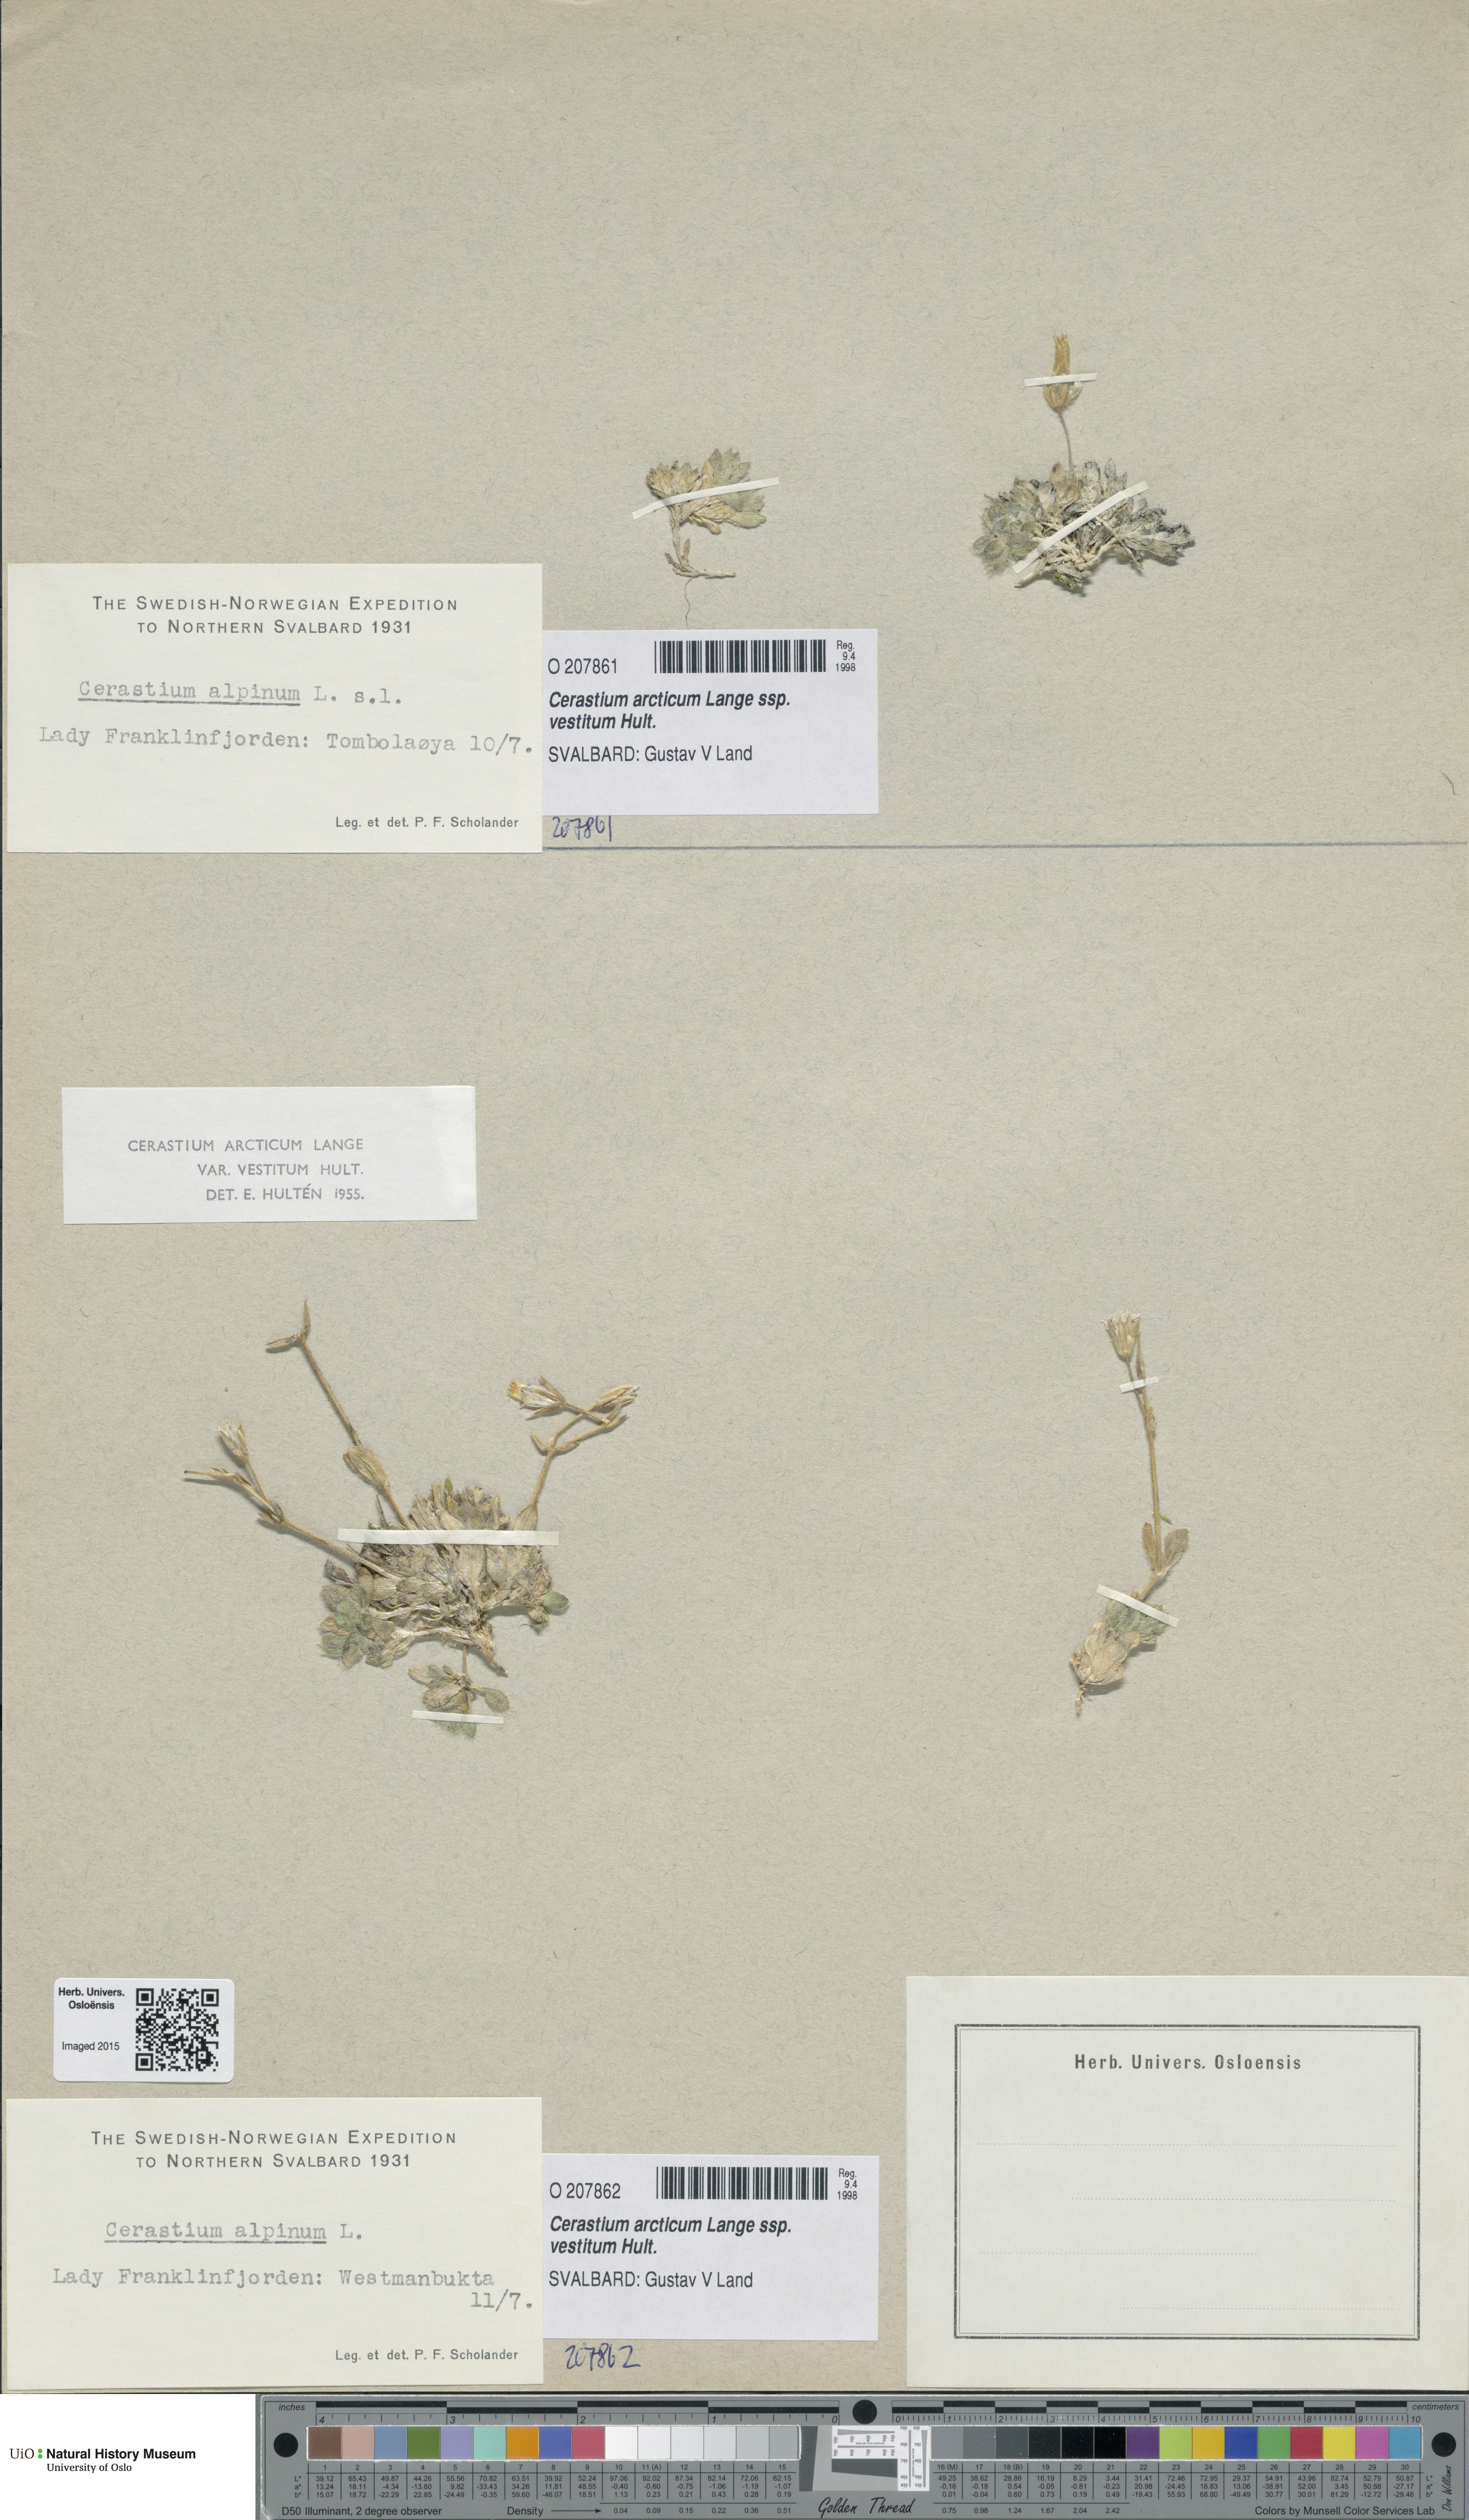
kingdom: Plantae
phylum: Tracheophyta
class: Magnoliopsida
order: Caryophyllales
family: Caryophyllaceae
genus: Cerastium
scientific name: Cerastium arcticum
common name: Arctic mouse-ear
